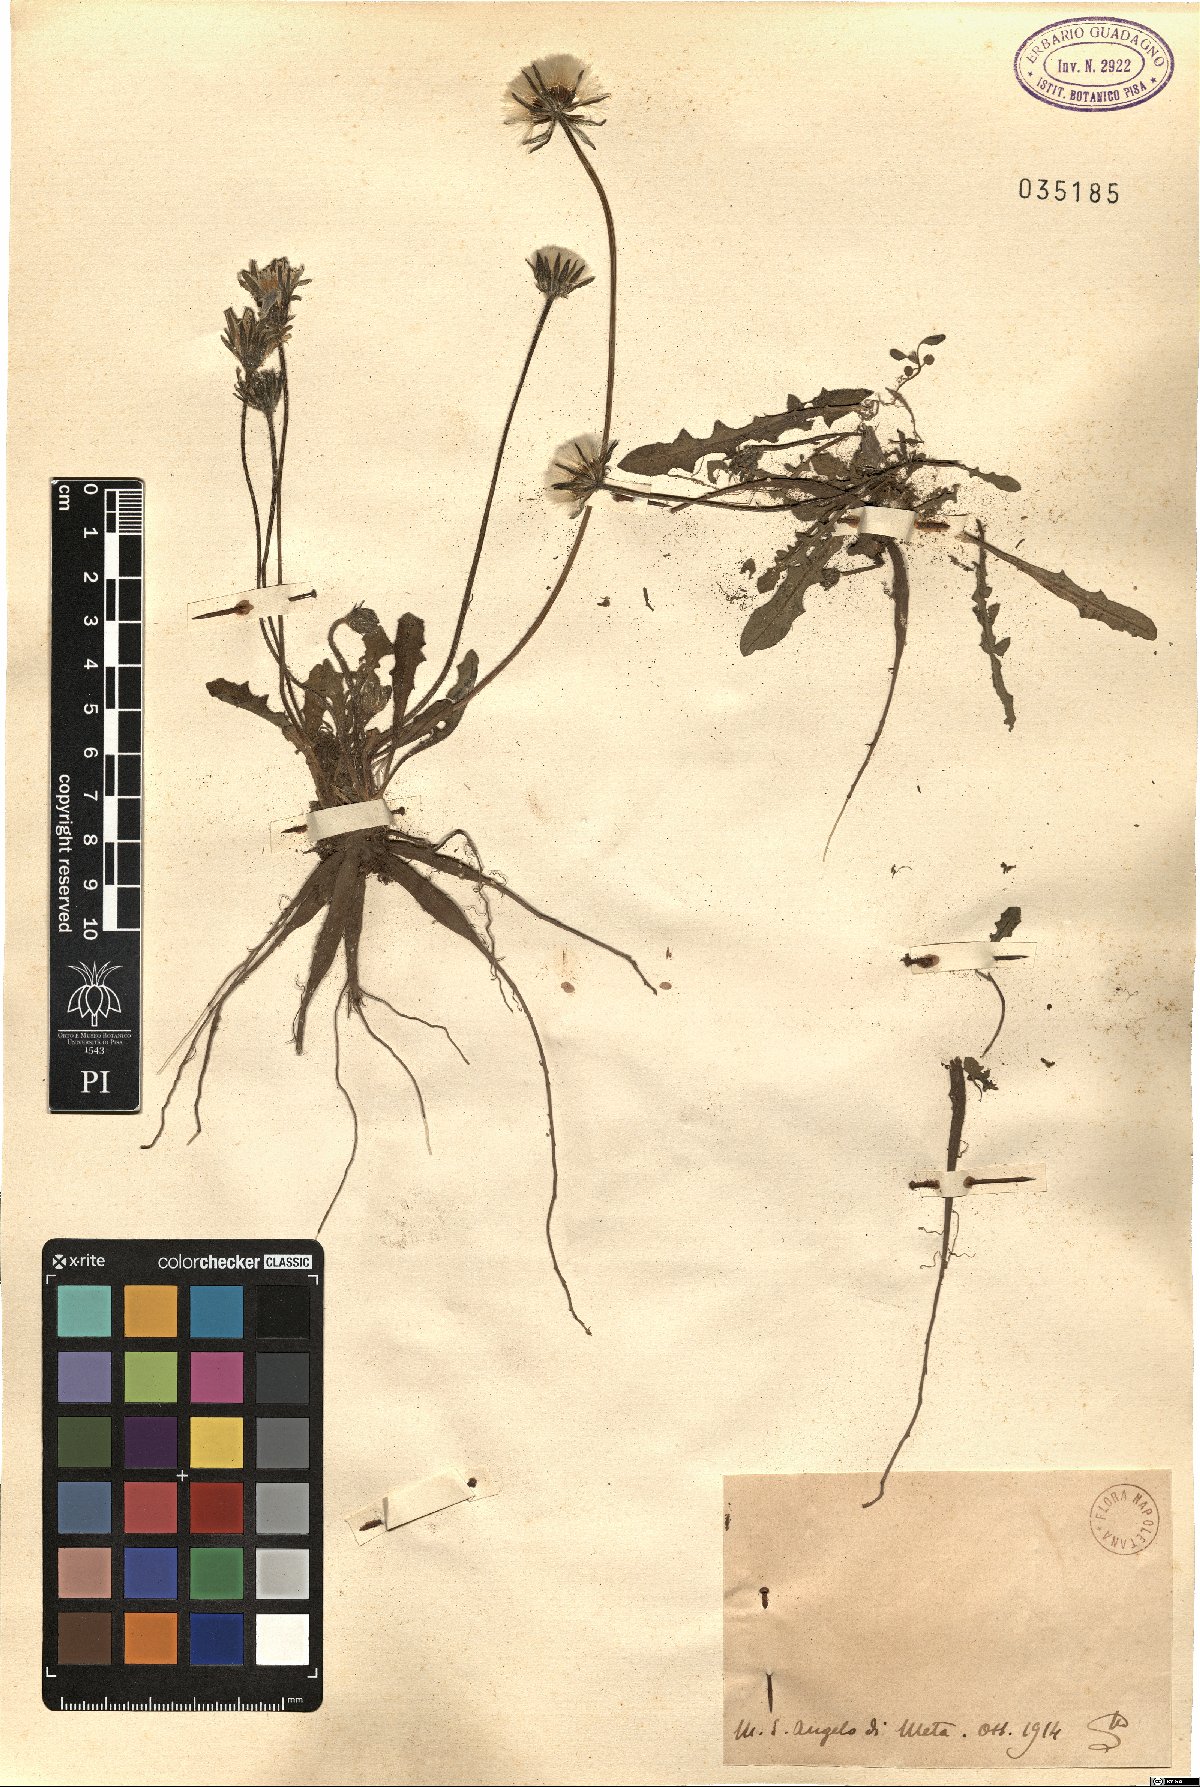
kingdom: Plantae
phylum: Tracheophyta
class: Magnoliopsida
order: Asterales
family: Asteraceae
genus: Thrincia
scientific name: Thrincia
